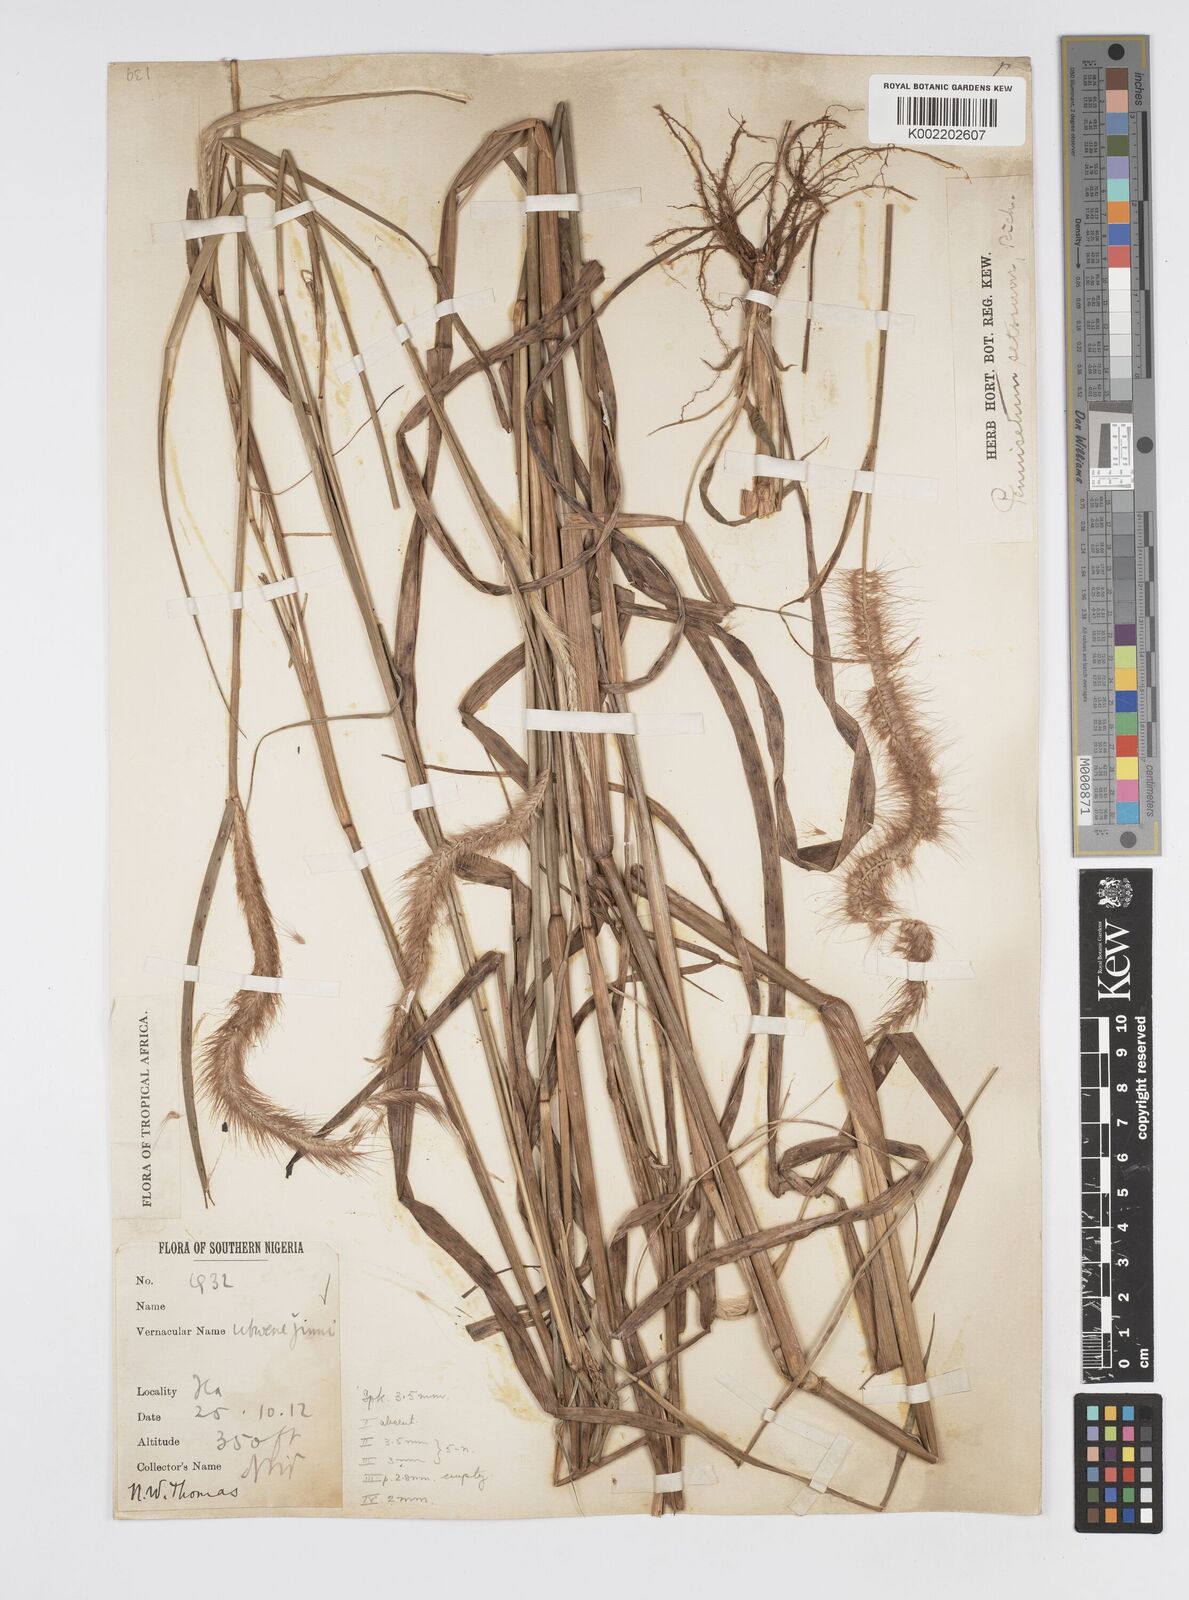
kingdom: Plantae
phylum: Tracheophyta
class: Liliopsida
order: Poales
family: Poaceae
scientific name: Poaceae
